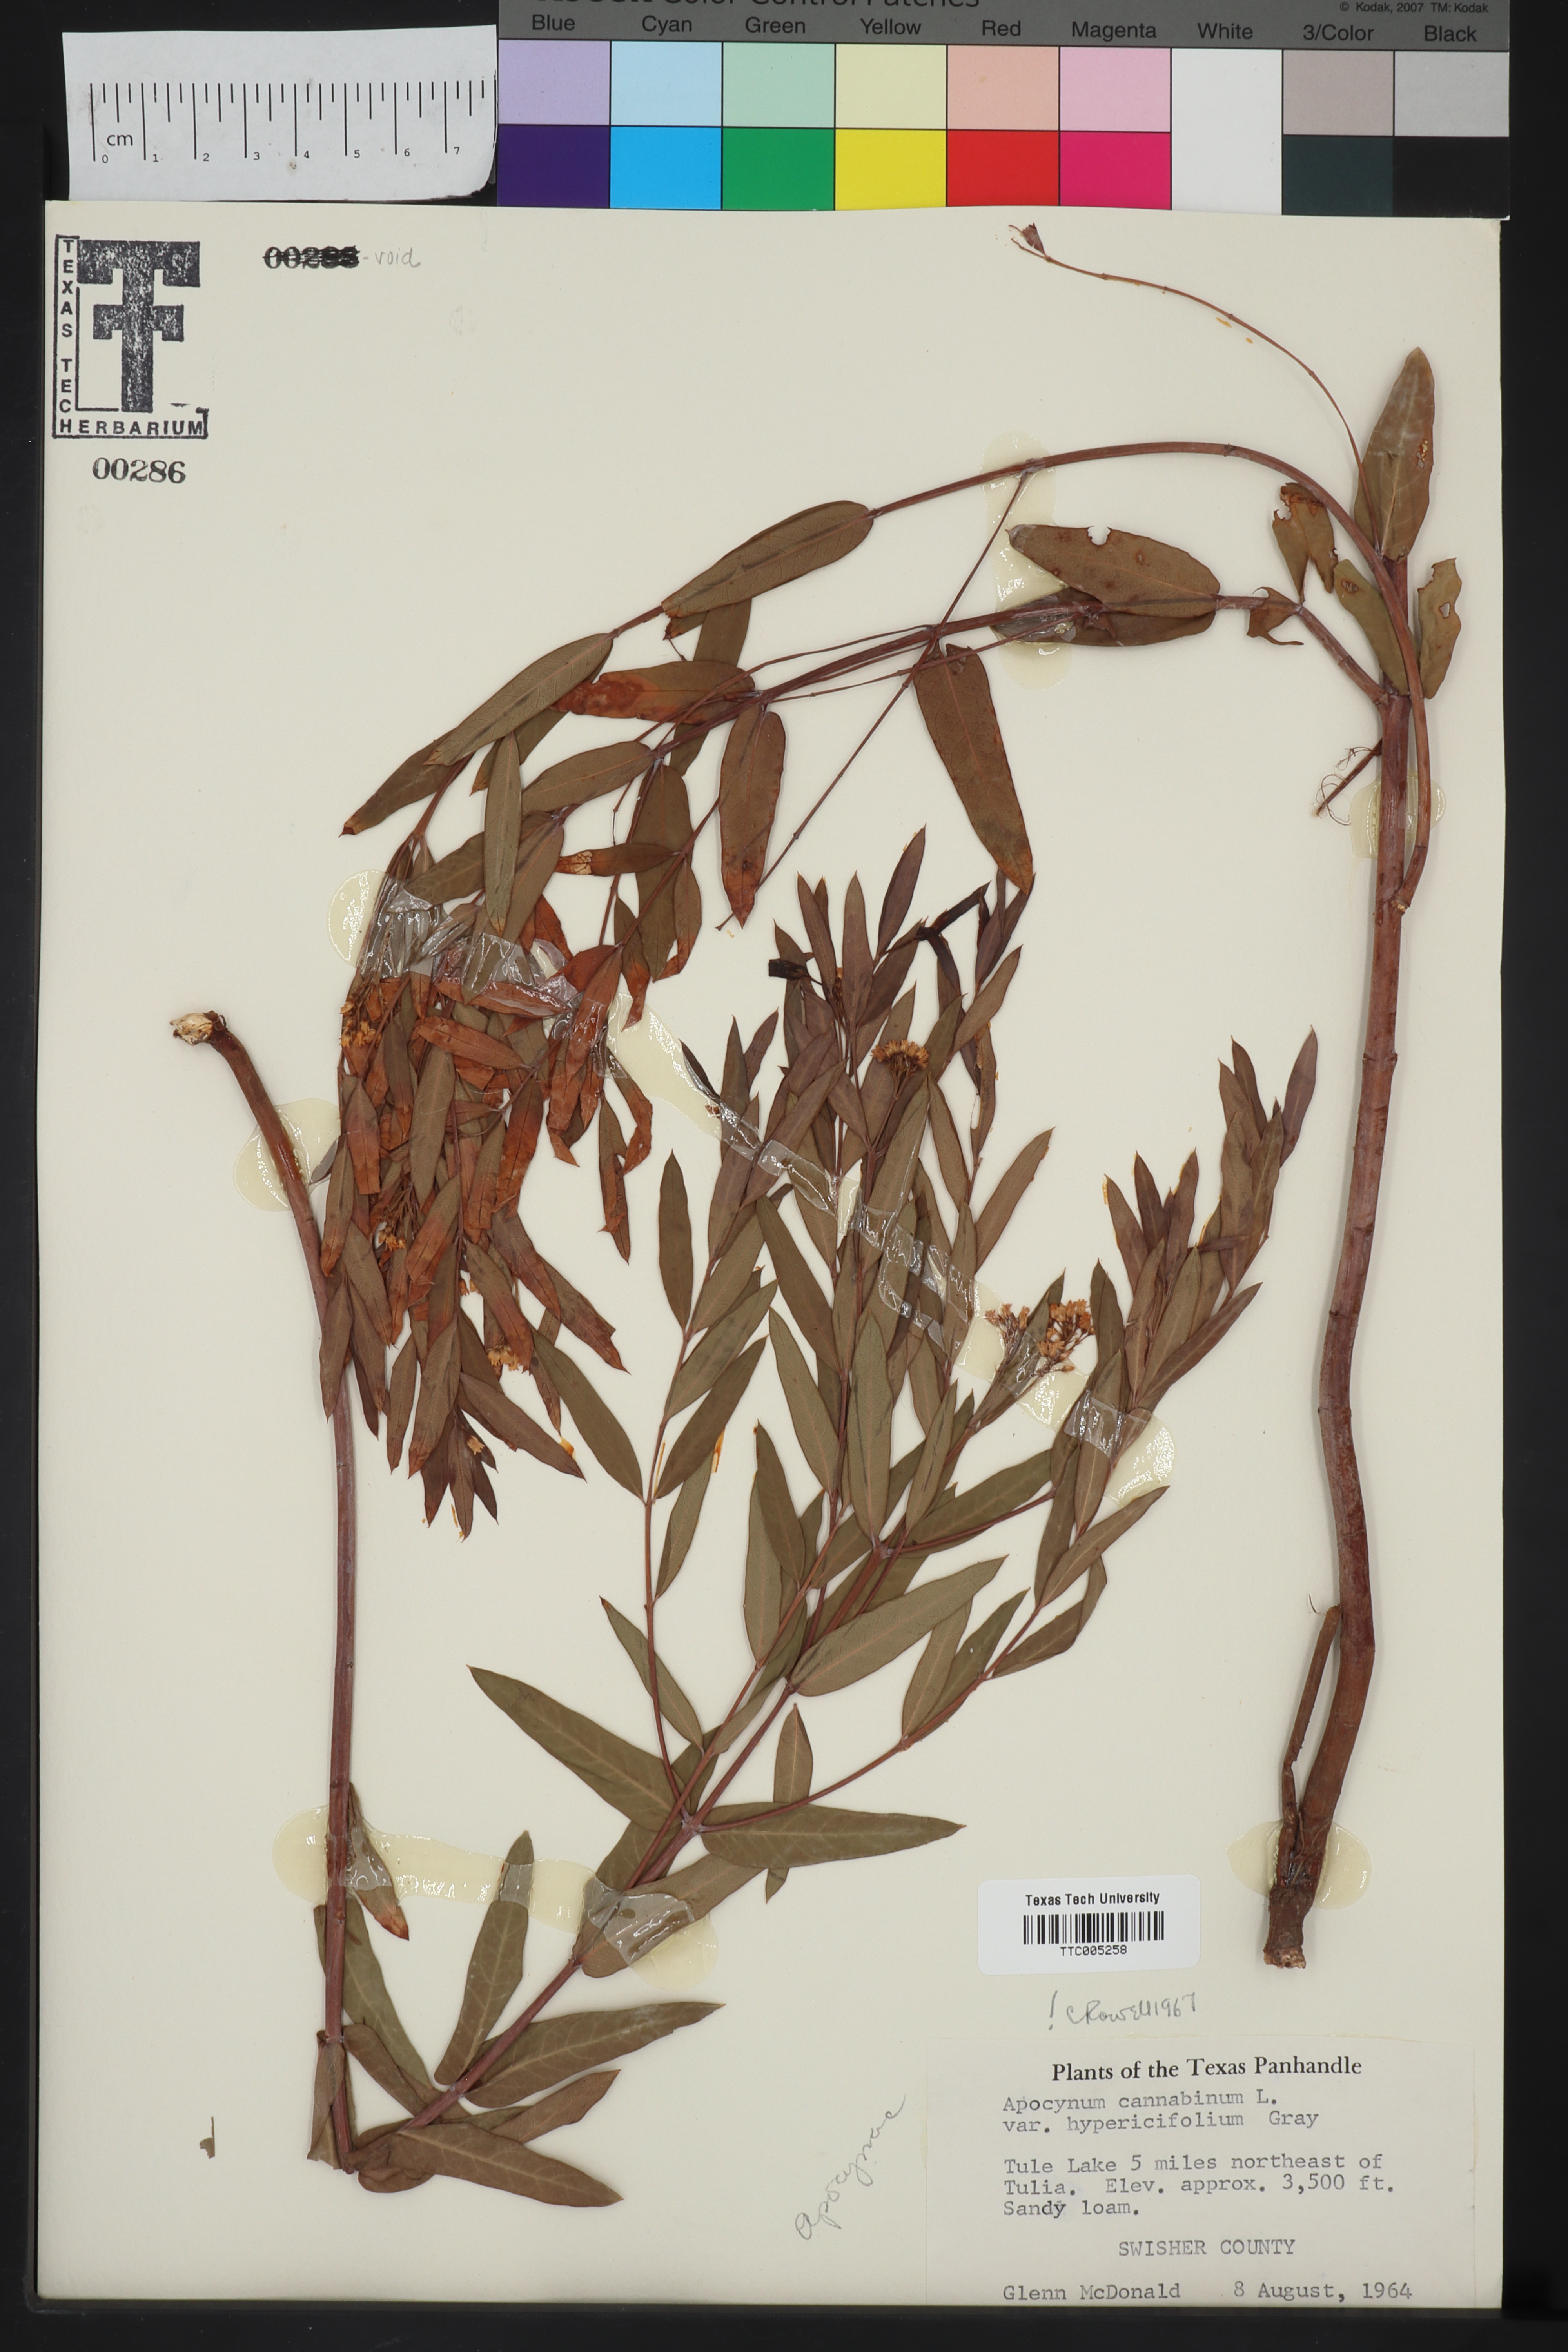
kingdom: Plantae
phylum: Tracheophyta
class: Magnoliopsida
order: Gentianales
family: Apocynaceae
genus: Apocynum
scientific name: Apocynum cannabinum
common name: Hemp dogbane
